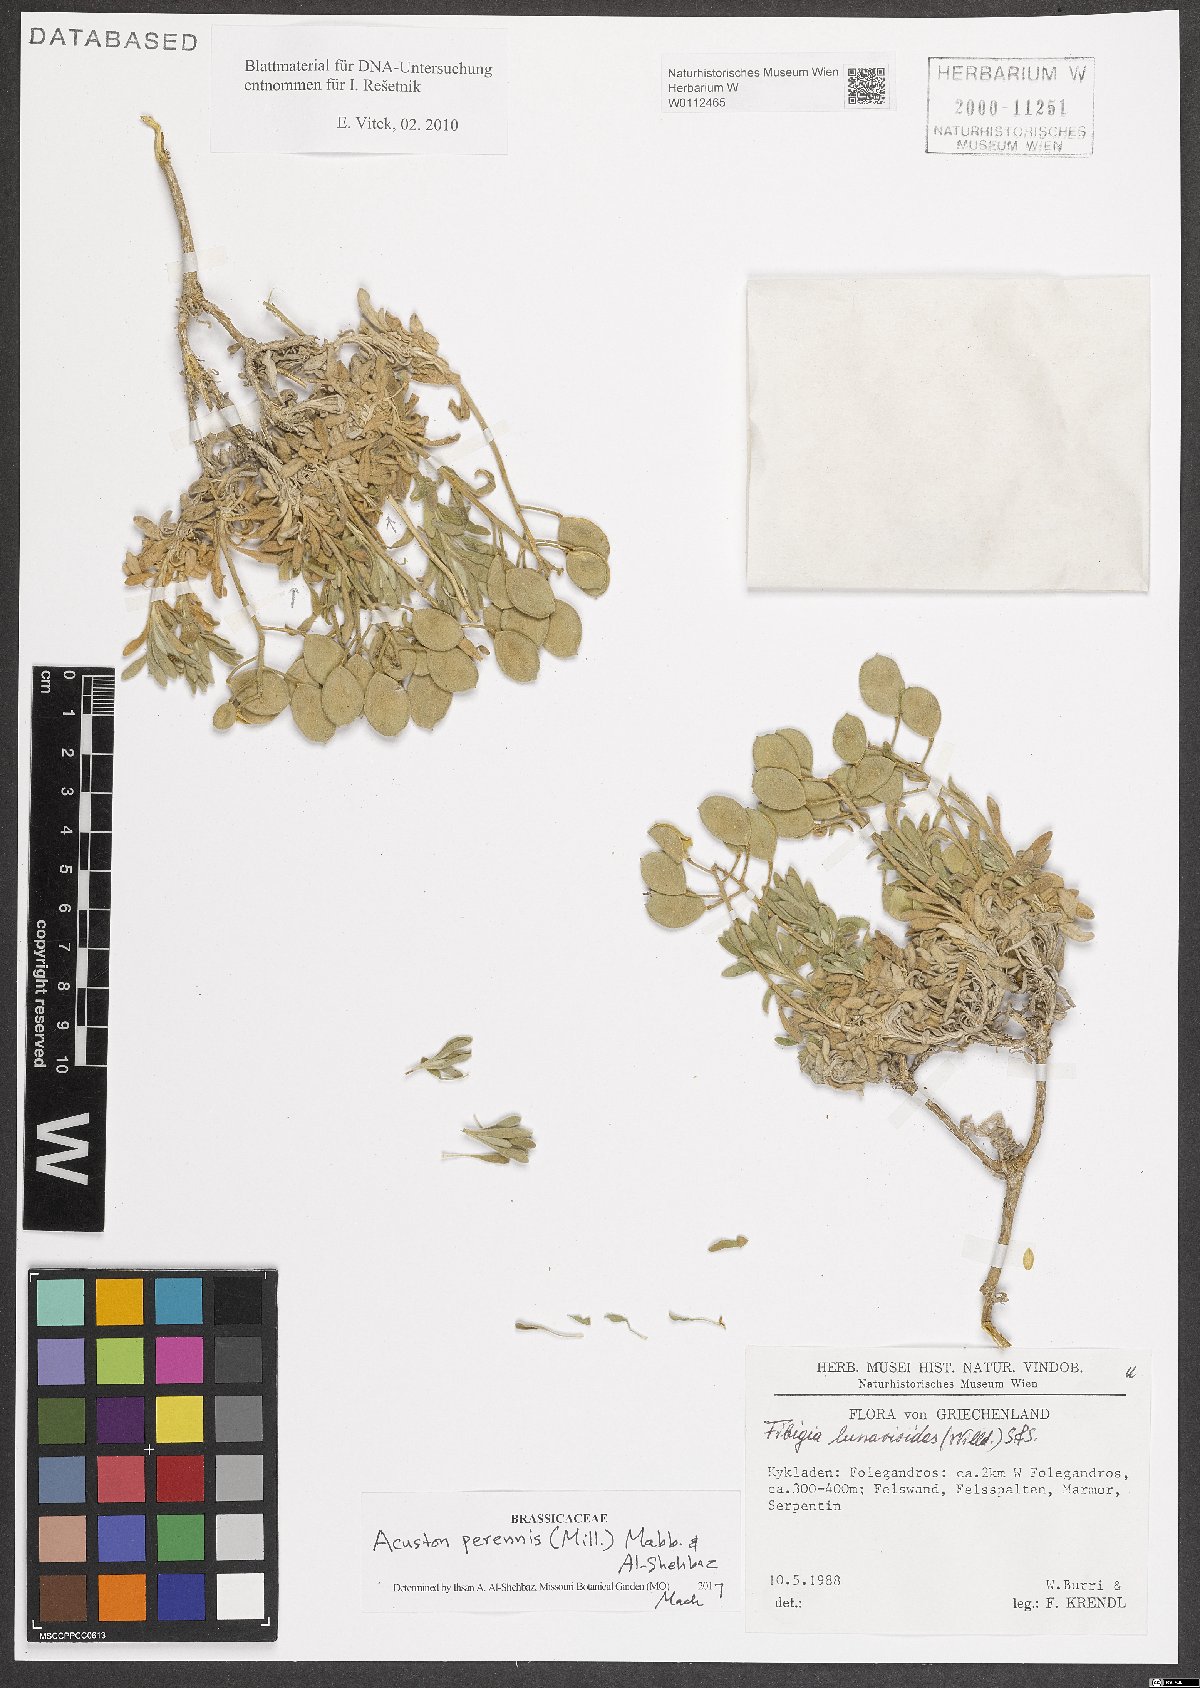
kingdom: Plantae
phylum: Tracheophyta
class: Magnoliopsida
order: Brassicales
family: Brassicaceae
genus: Acuston
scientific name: Acuston perenne
